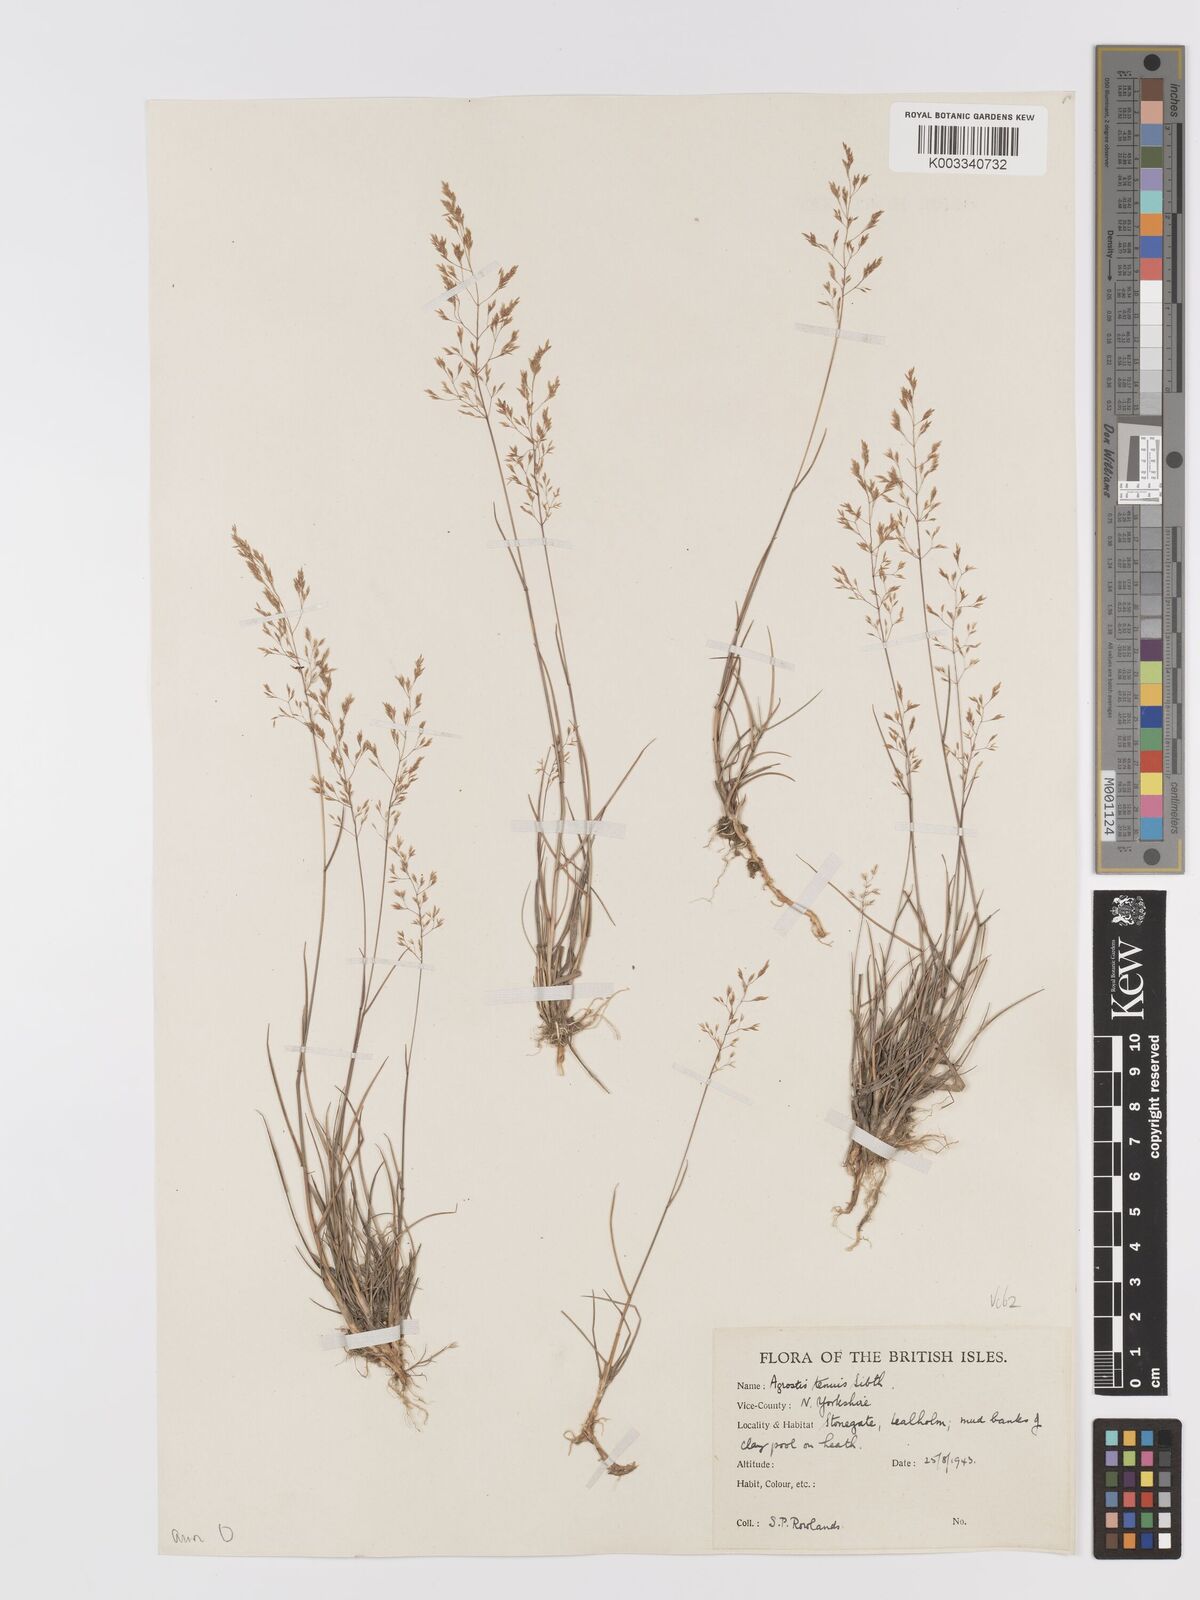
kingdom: Plantae
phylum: Tracheophyta
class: Liliopsida
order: Poales
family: Poaceae
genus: Agrostis
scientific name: Agrostis capillaris
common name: Colonial bentgrass
